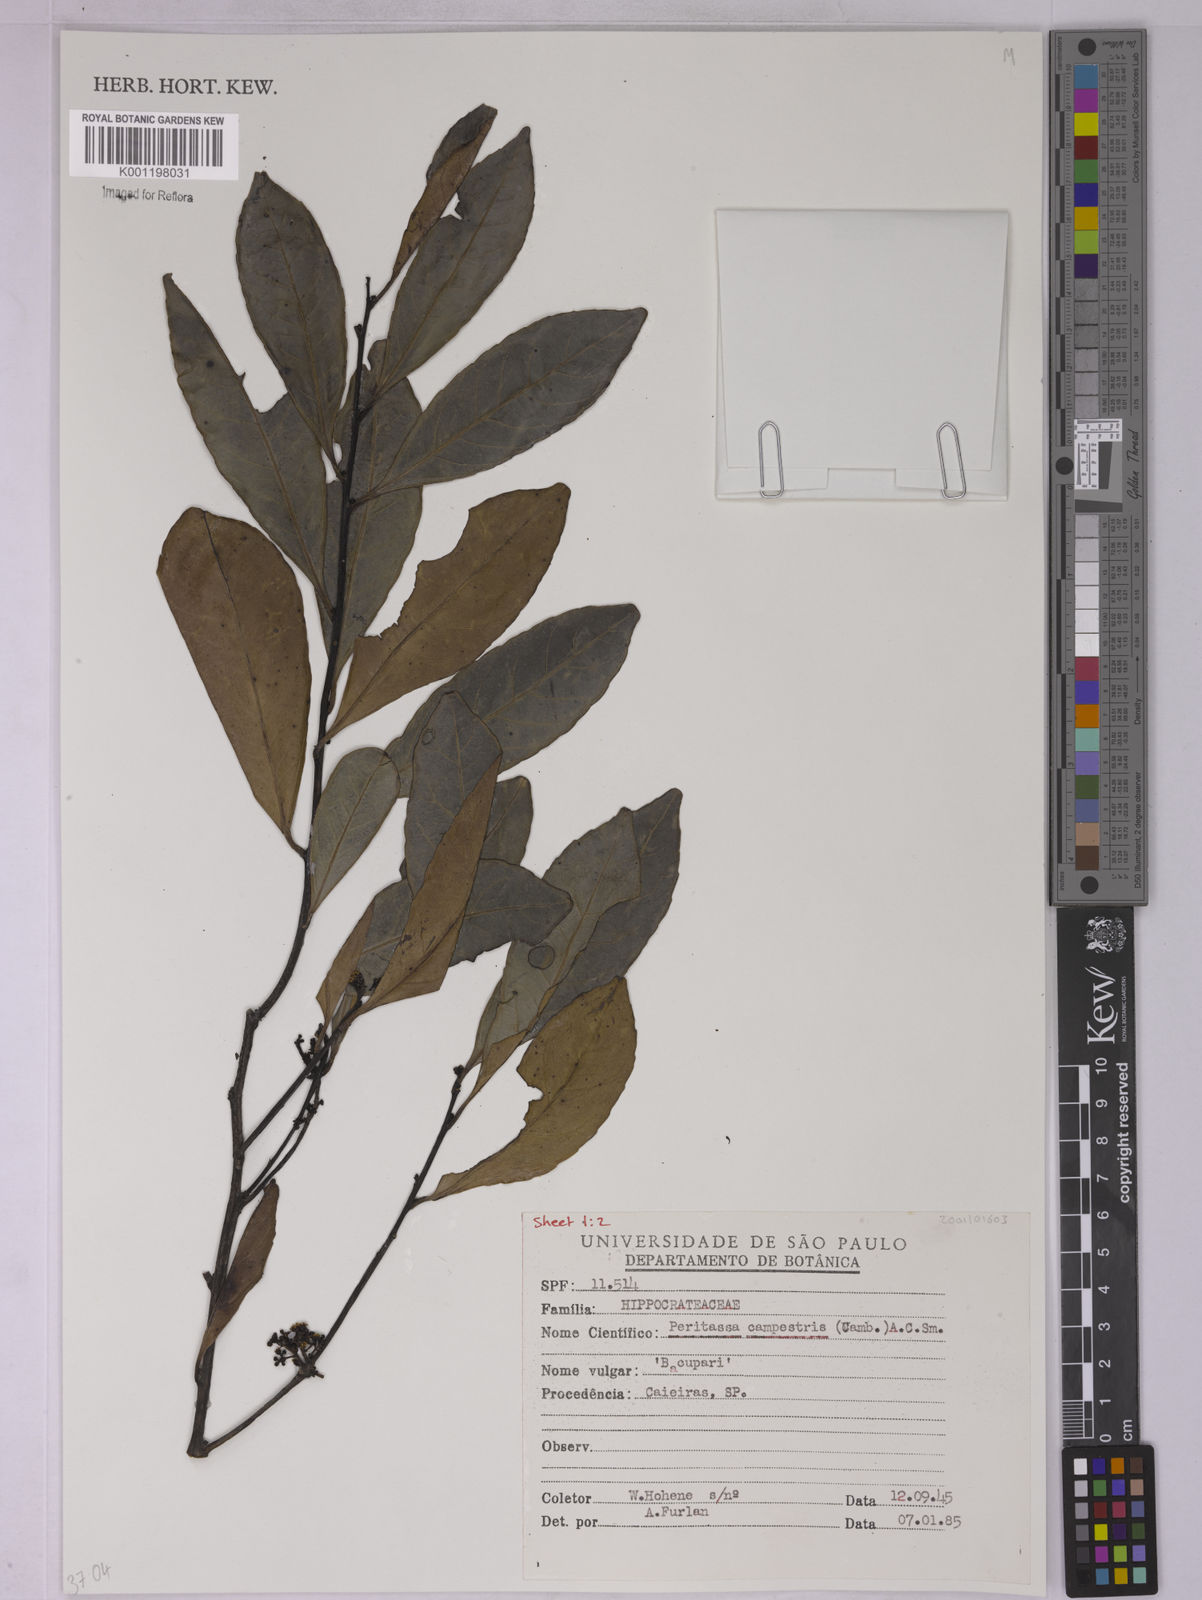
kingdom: Plantae
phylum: Tracheophyta
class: Magnoliopsida
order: Celastrales
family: Celastraceae
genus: Peritassa
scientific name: Peritassa campestris
